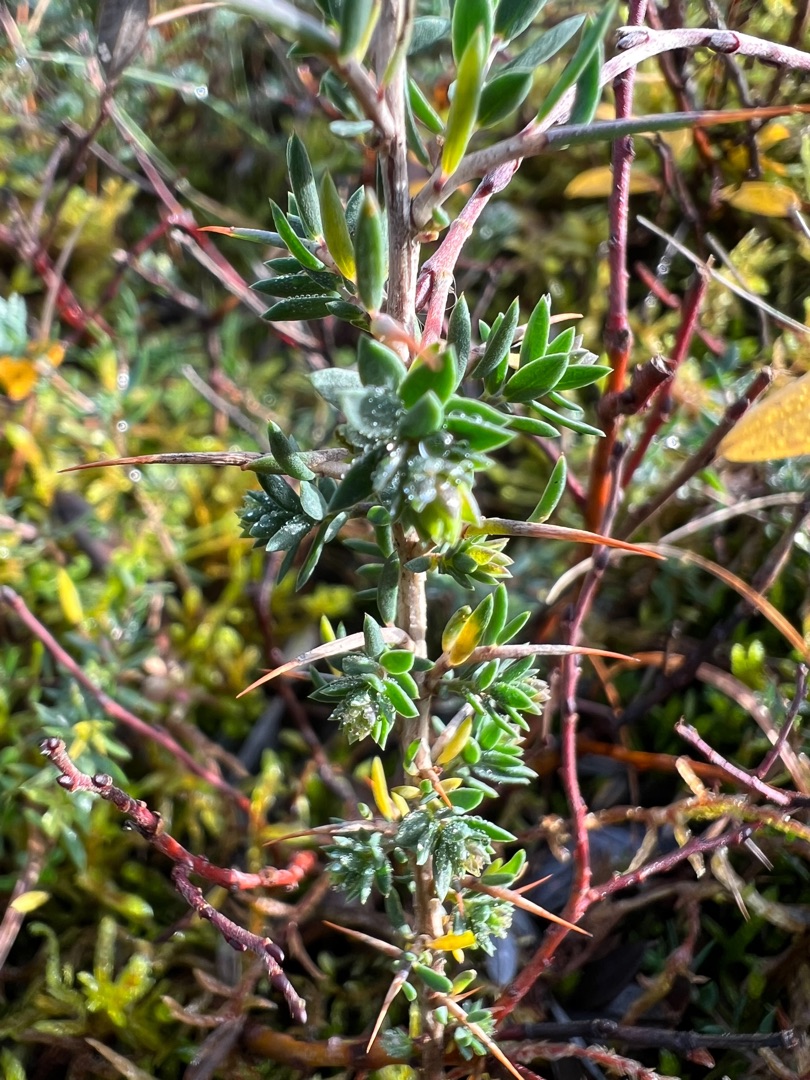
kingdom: Plantae
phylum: Tracheophyta
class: Magnoliopsida
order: Fabales
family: Fabaceae
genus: Genista
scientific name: Genista anglica
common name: Engelsk visse
